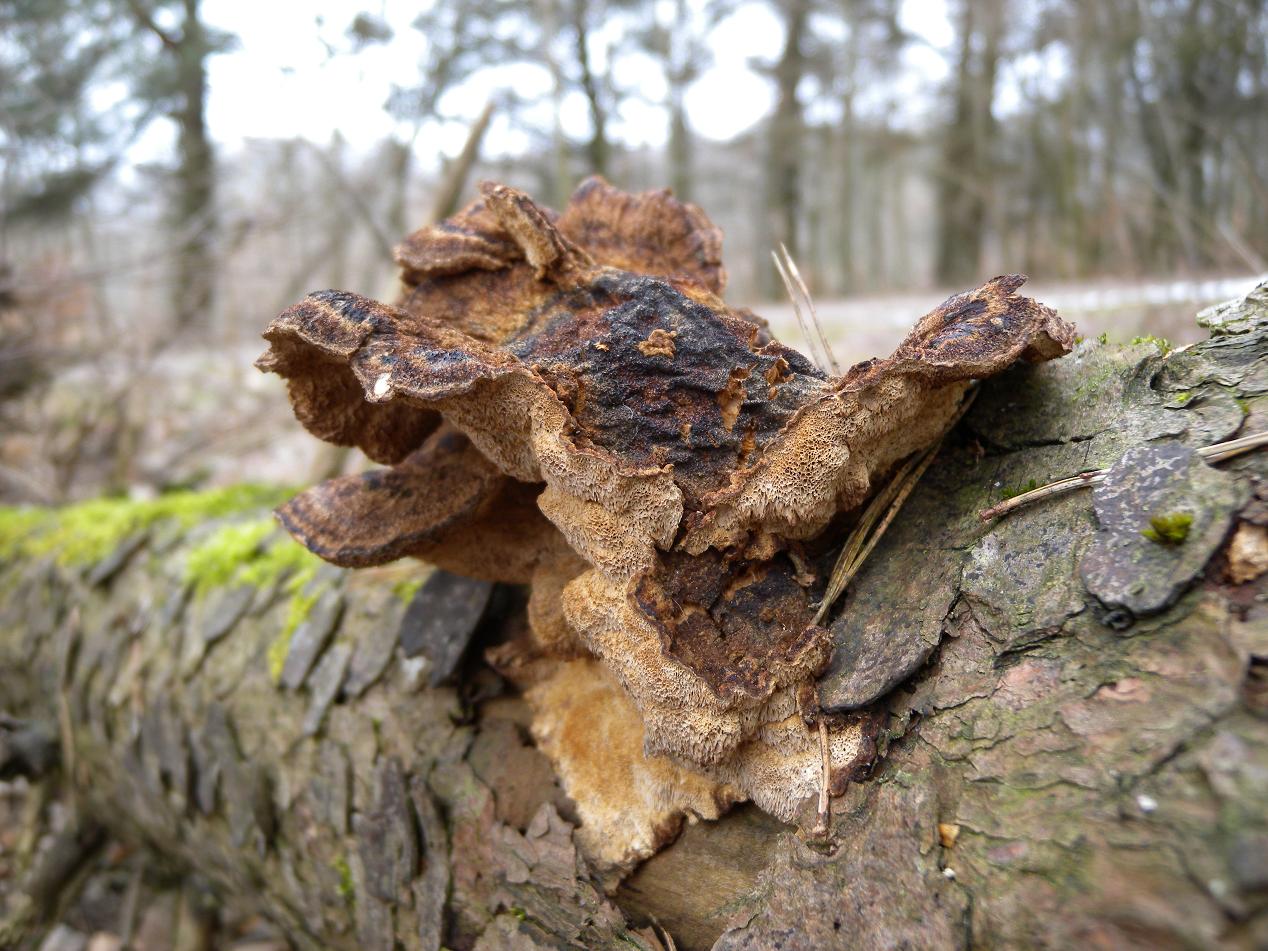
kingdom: Fungi
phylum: Basidiomycota
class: Agaricomycetes
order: Polyporales
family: Ischnodermataceae
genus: Ischnoderma
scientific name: Ischnoderma benzoinum
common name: gran-tjæreporesvamp
